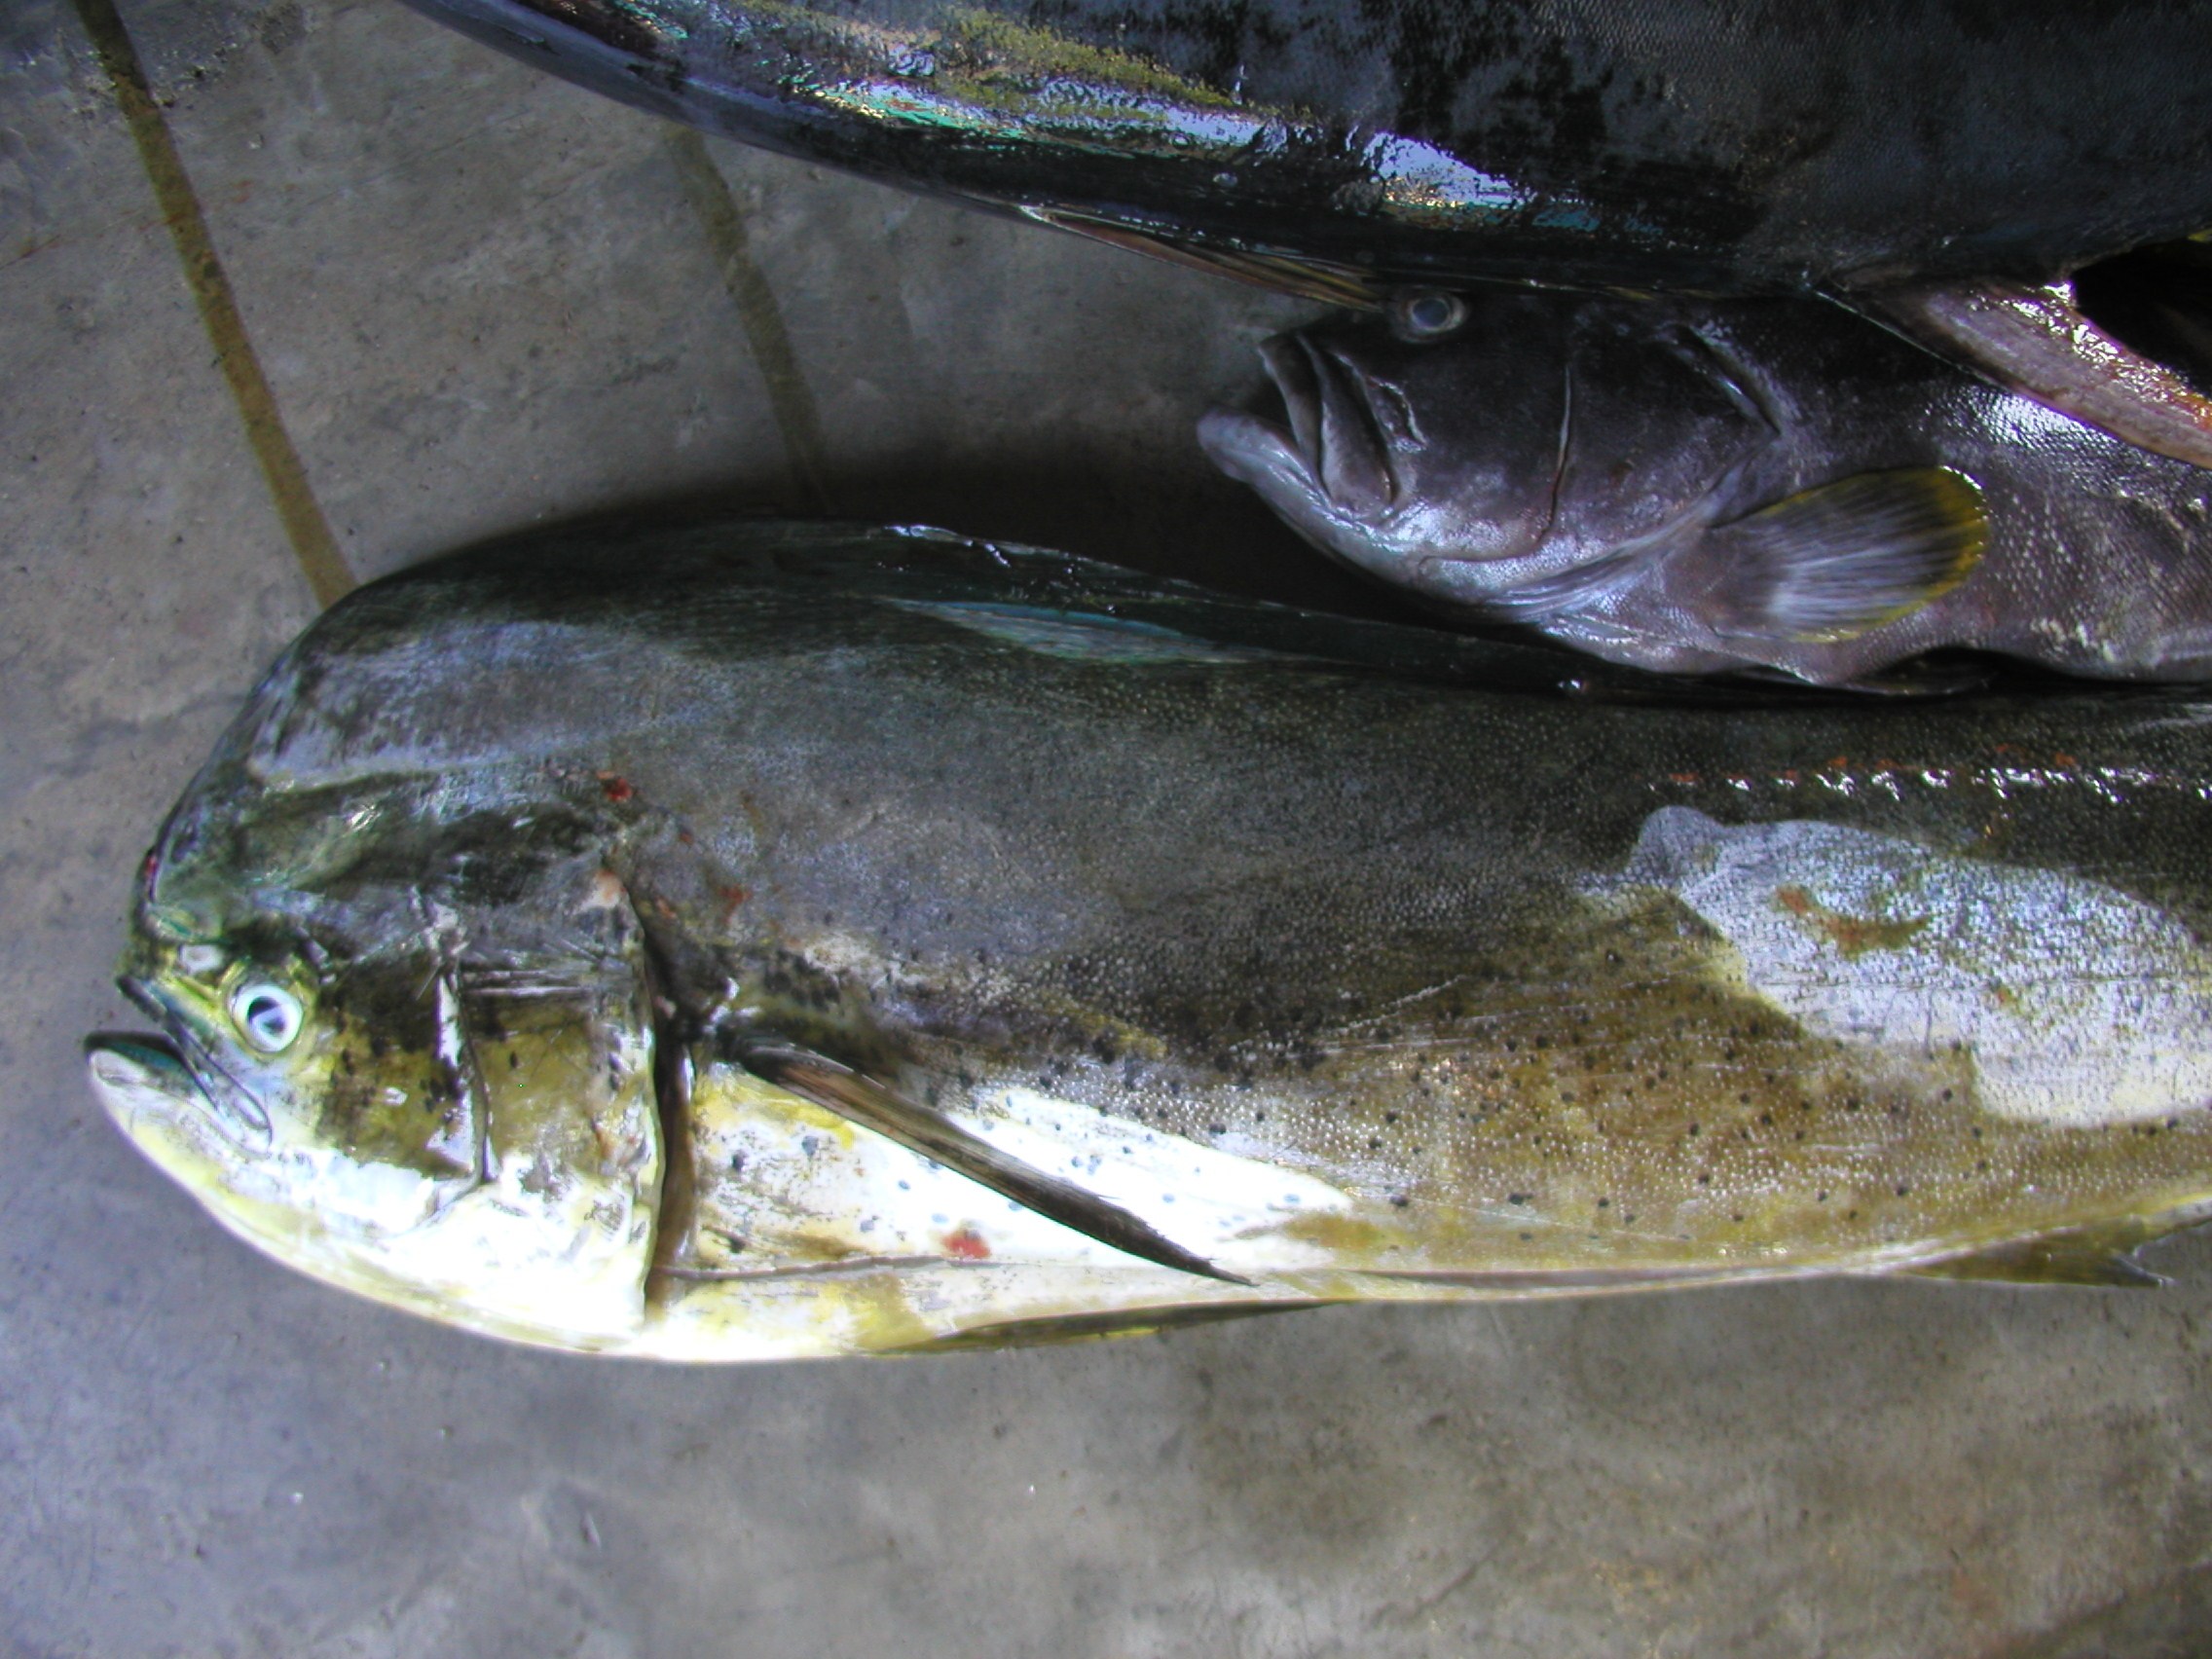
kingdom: Animalia
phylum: Chordata
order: Perciformes
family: Coryphaenidae
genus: Coryphaena
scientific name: Coryphaena hippurus
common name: Dolphin
